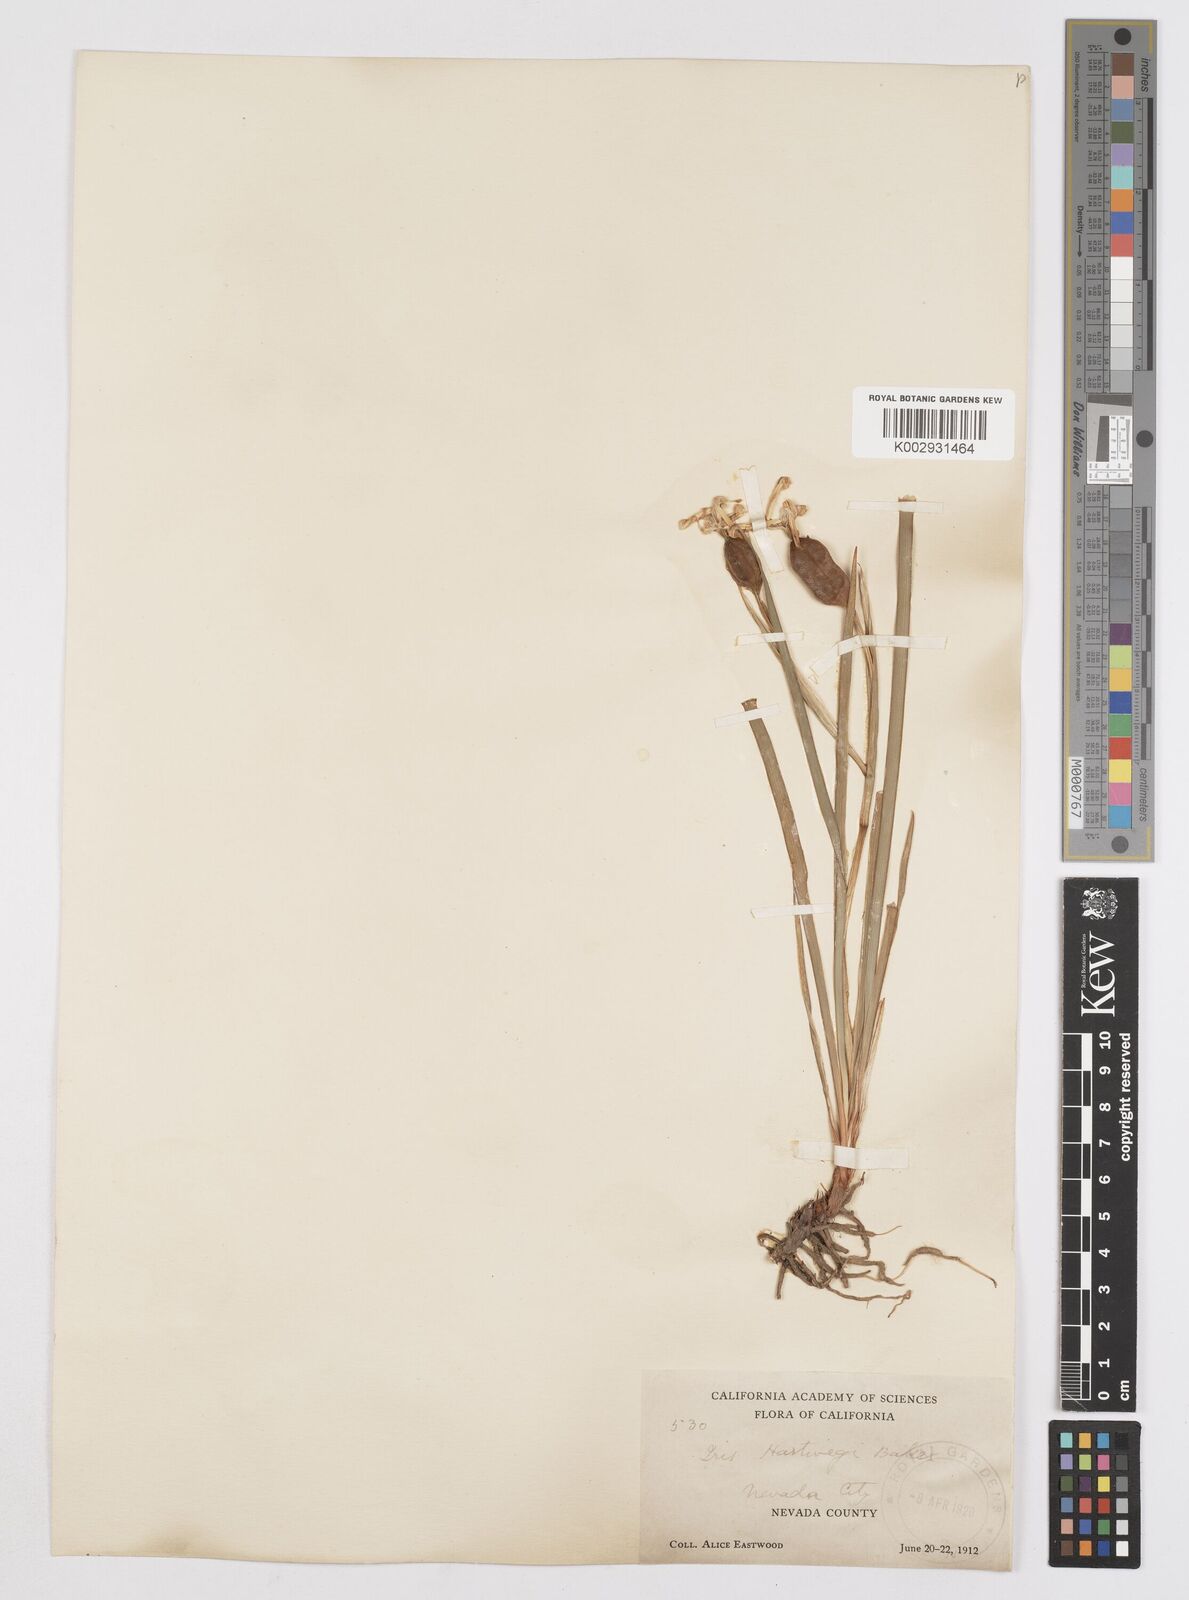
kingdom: Plantae
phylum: Tracheophyta
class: Liliopsida
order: Asparagales
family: Iridaceae
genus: Iris
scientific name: Iris hartwegii
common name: Sierra iris
